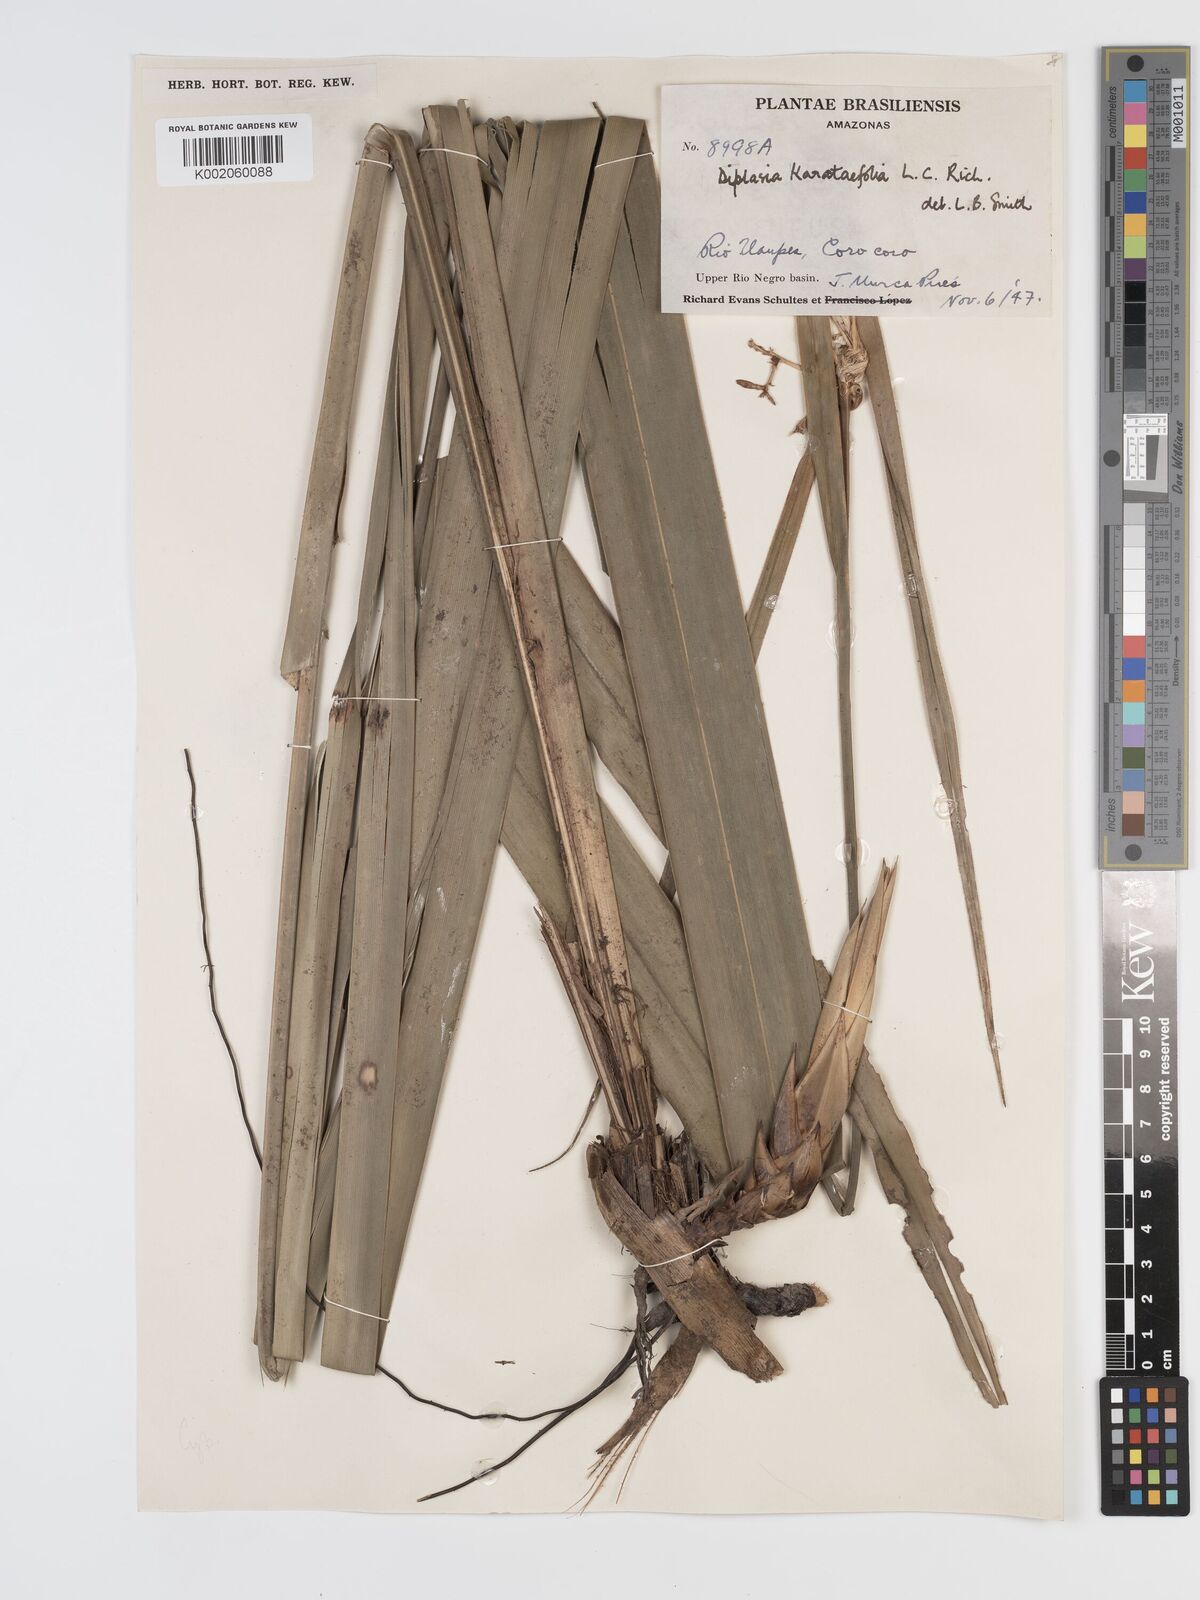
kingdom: Plantae
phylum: Tracheophyta
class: Liliopsida
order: Poales
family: Cyperaceae
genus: Diplasia
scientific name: Diplasia karatifolia
